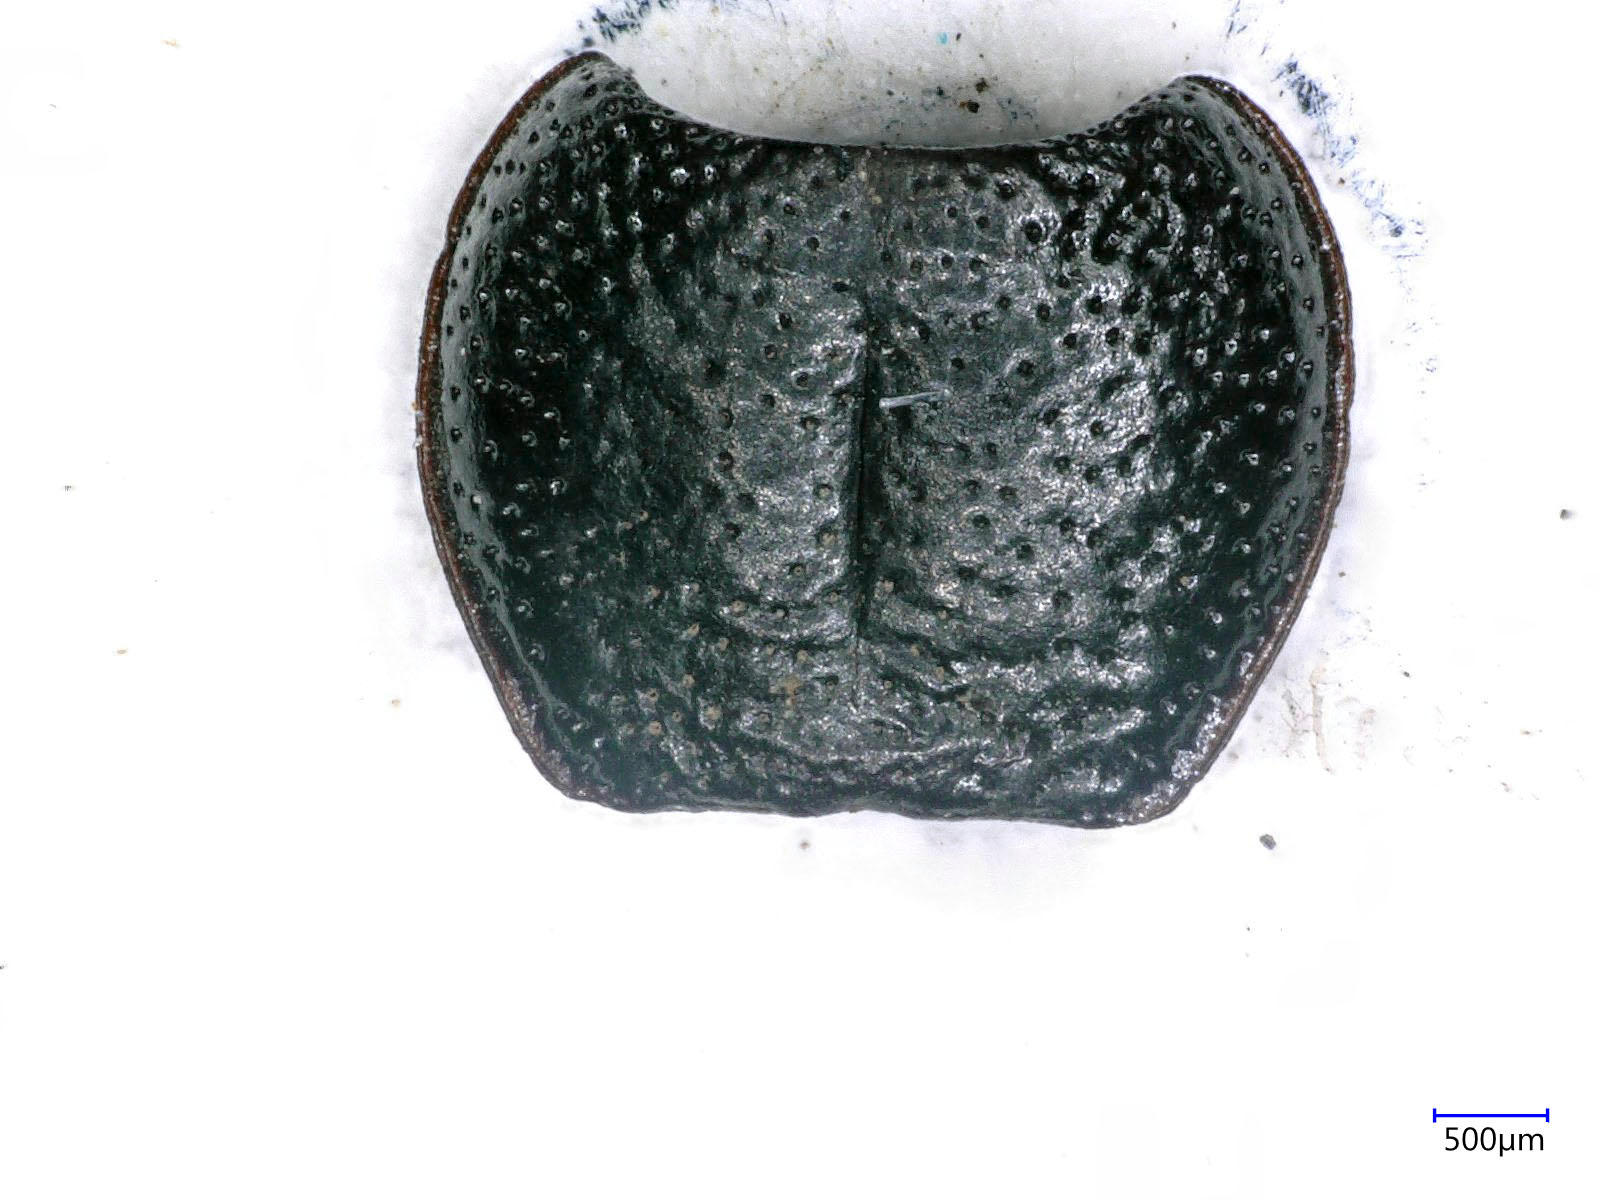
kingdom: Animalia
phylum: Arthropoda
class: Insecta
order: Coleoptera
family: Carabidae
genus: Dicheirus
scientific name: Dicheirus dilatatus
